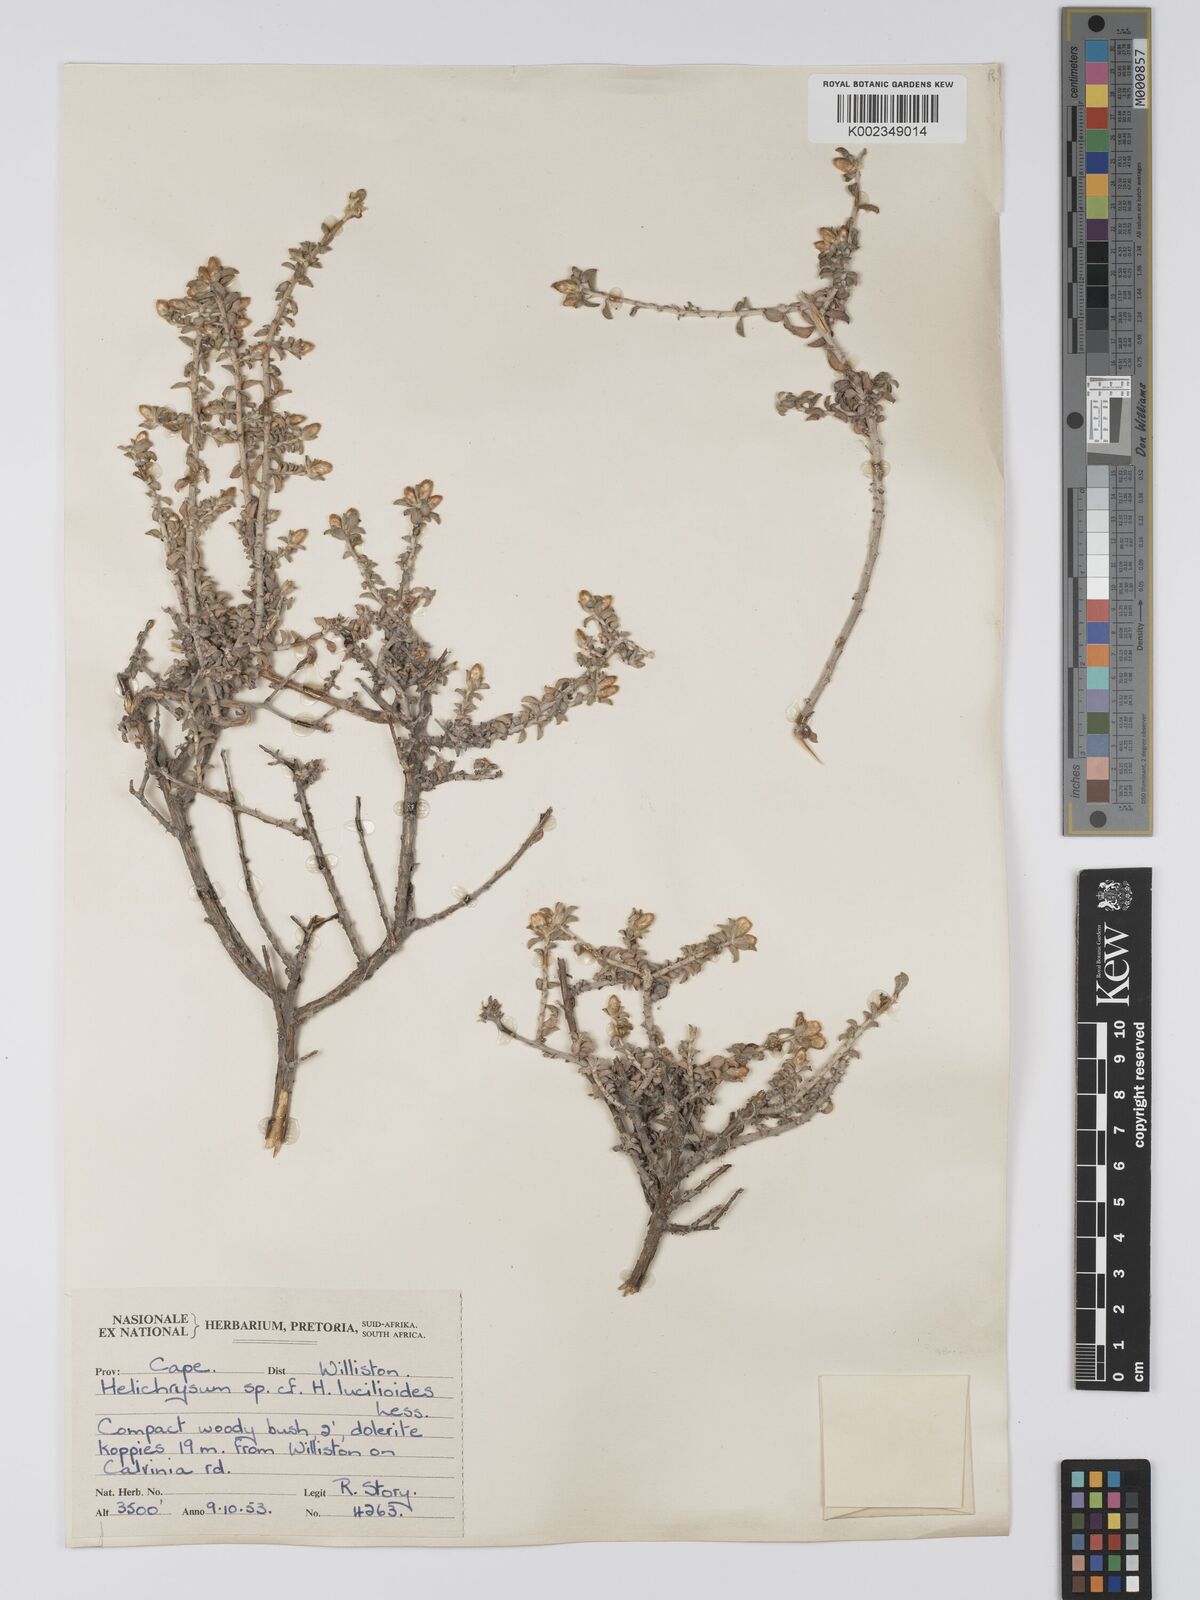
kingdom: Plantae
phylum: Tracheophyta
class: Magnoliopsida
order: Asterales
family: Asteraceae
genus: Helichrysum
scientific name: Helichrysum lucilioides
